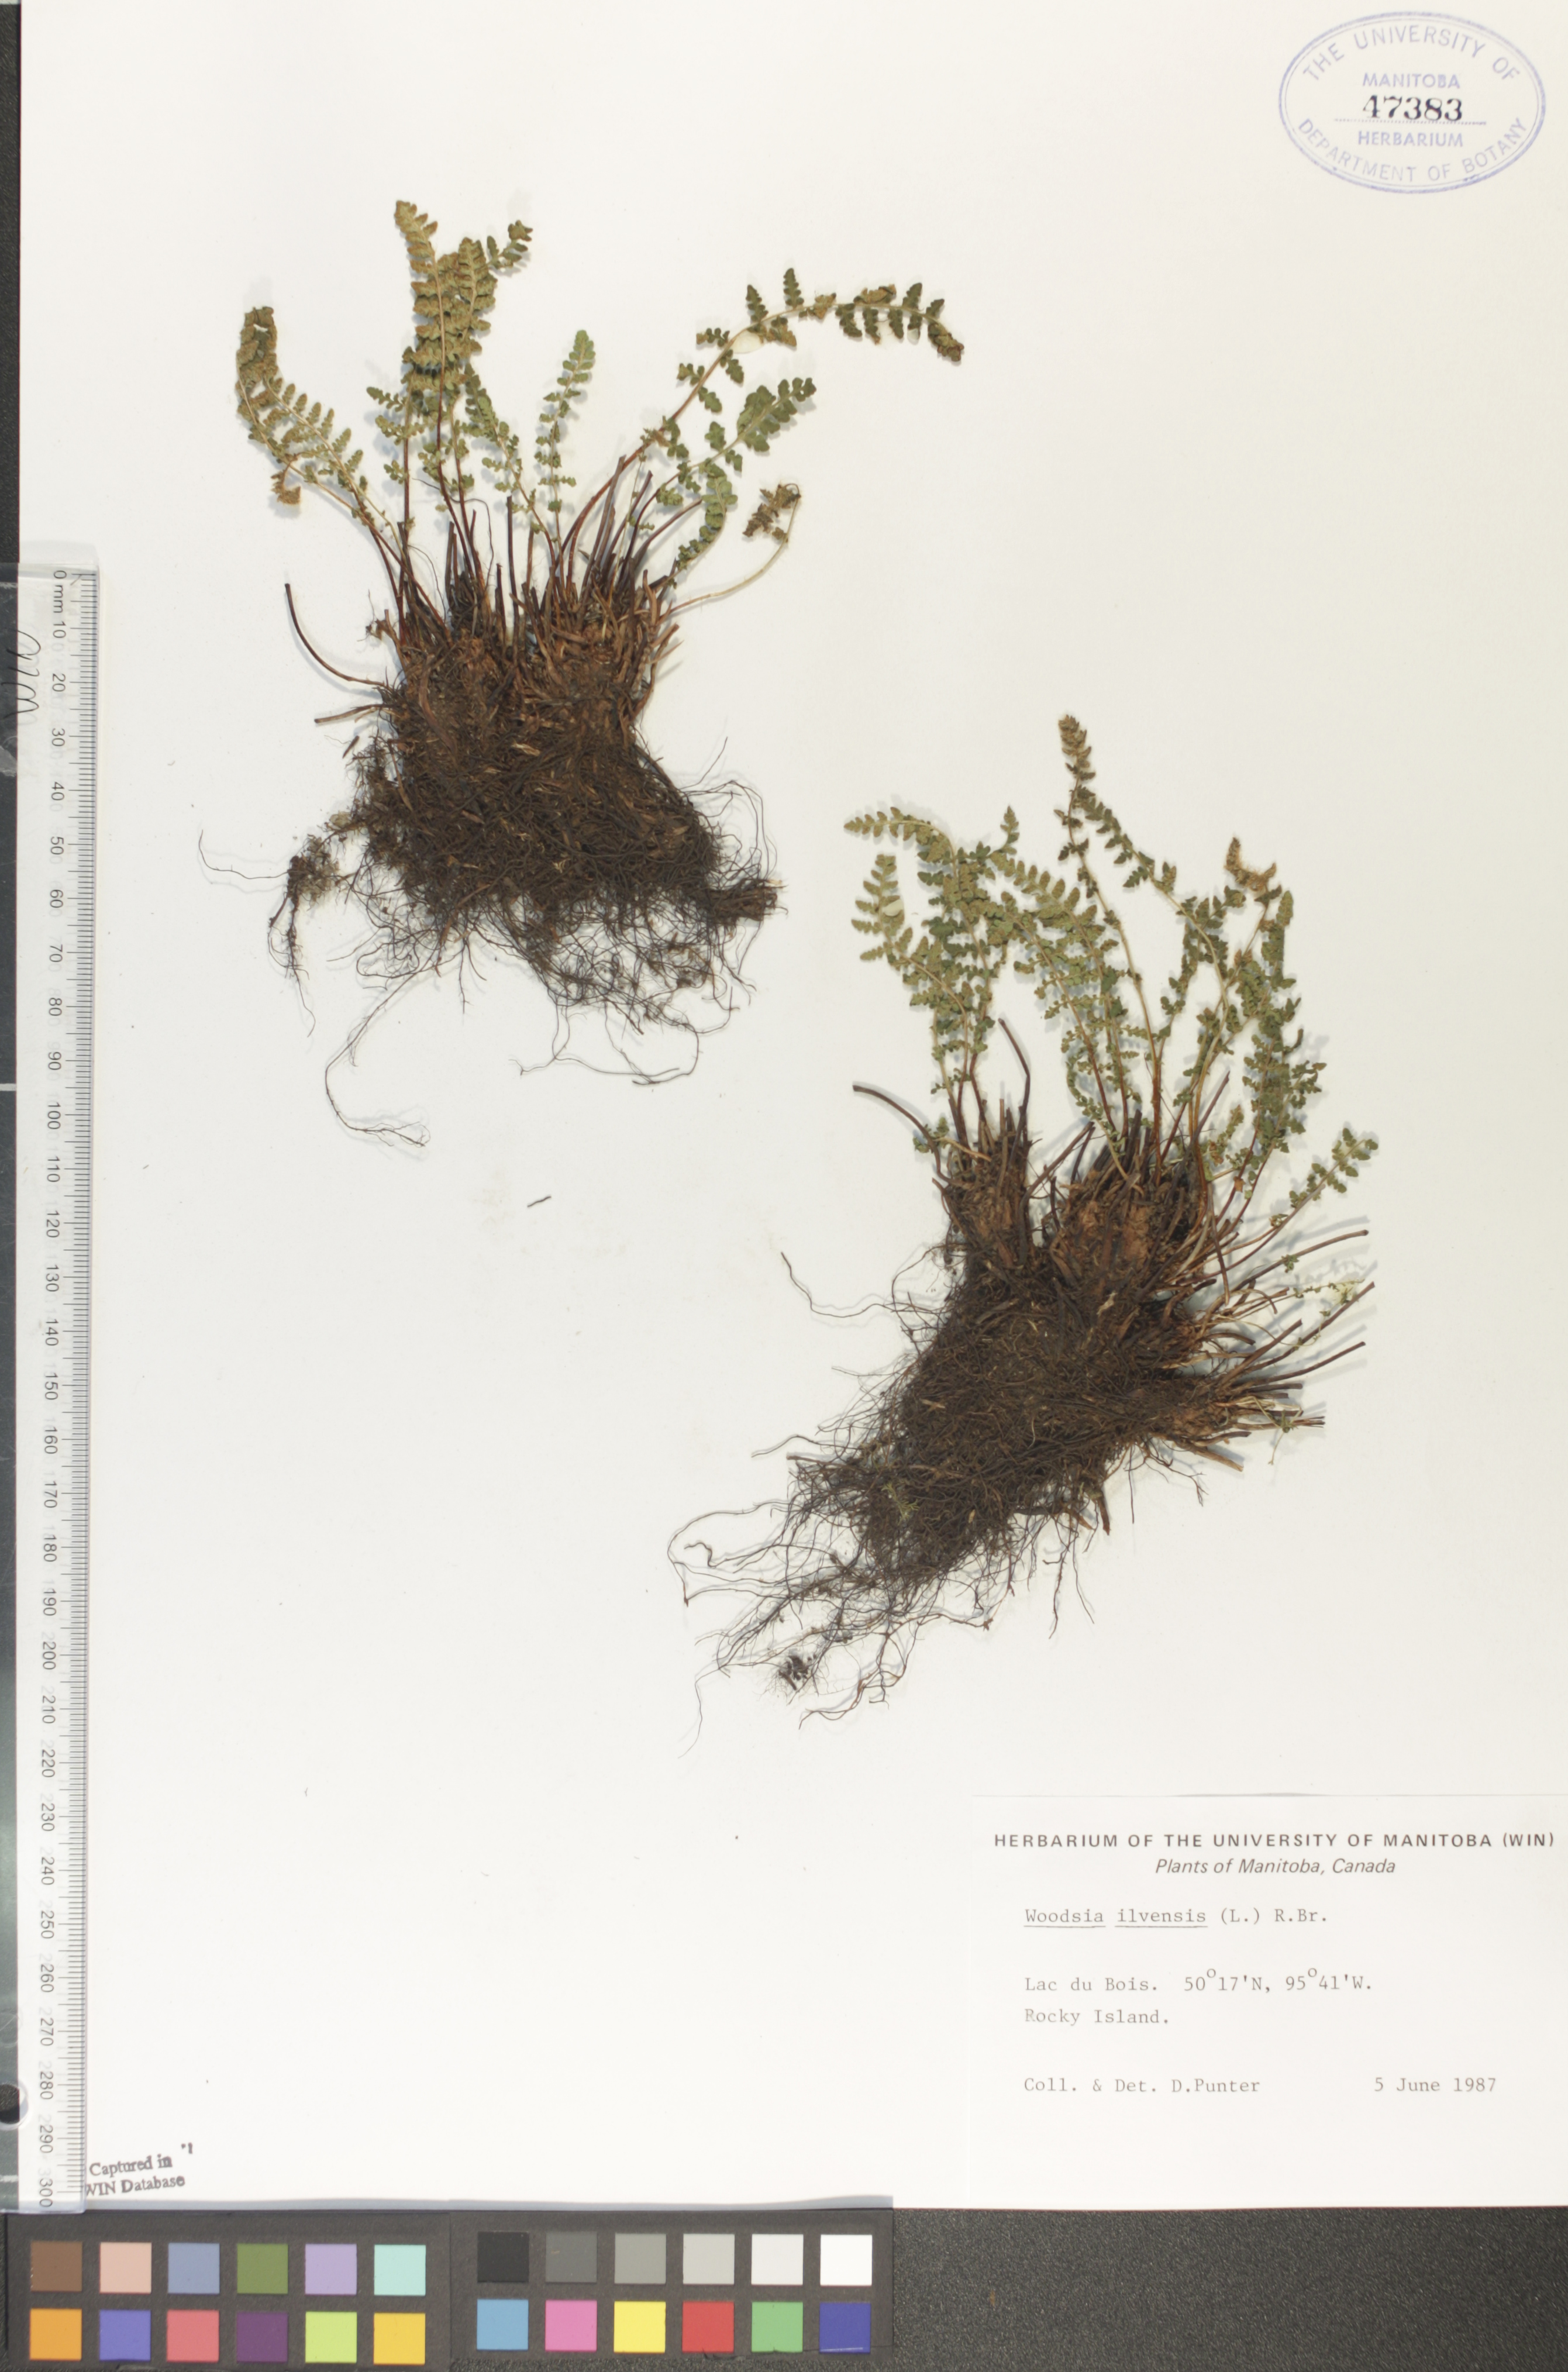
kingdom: Plantae
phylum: Tracheophyta
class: Polypodiopsida
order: Polypodiales
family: Woodsiaceae
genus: Woodsia
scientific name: Woodsia ilvensis
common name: Fragrant woodsia
